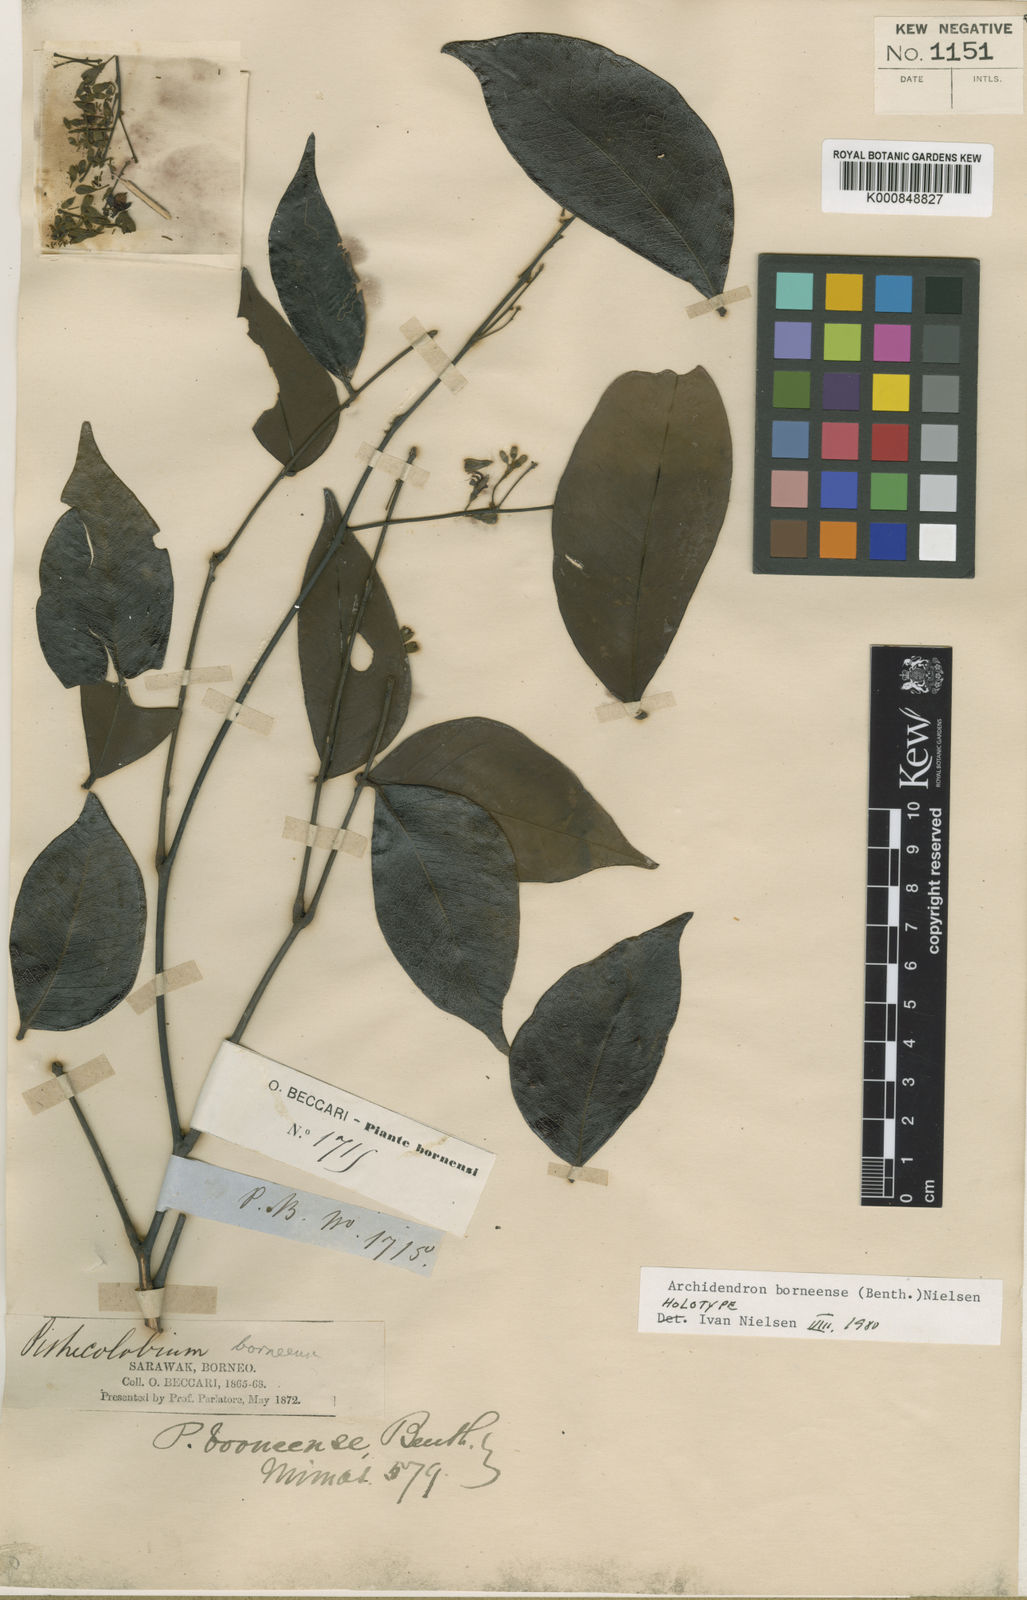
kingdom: Plantae
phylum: Tracheophyta
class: Magnoliopsida
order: Fabales
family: Fabaceae
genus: Archidendron
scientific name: Archidendron borneense
